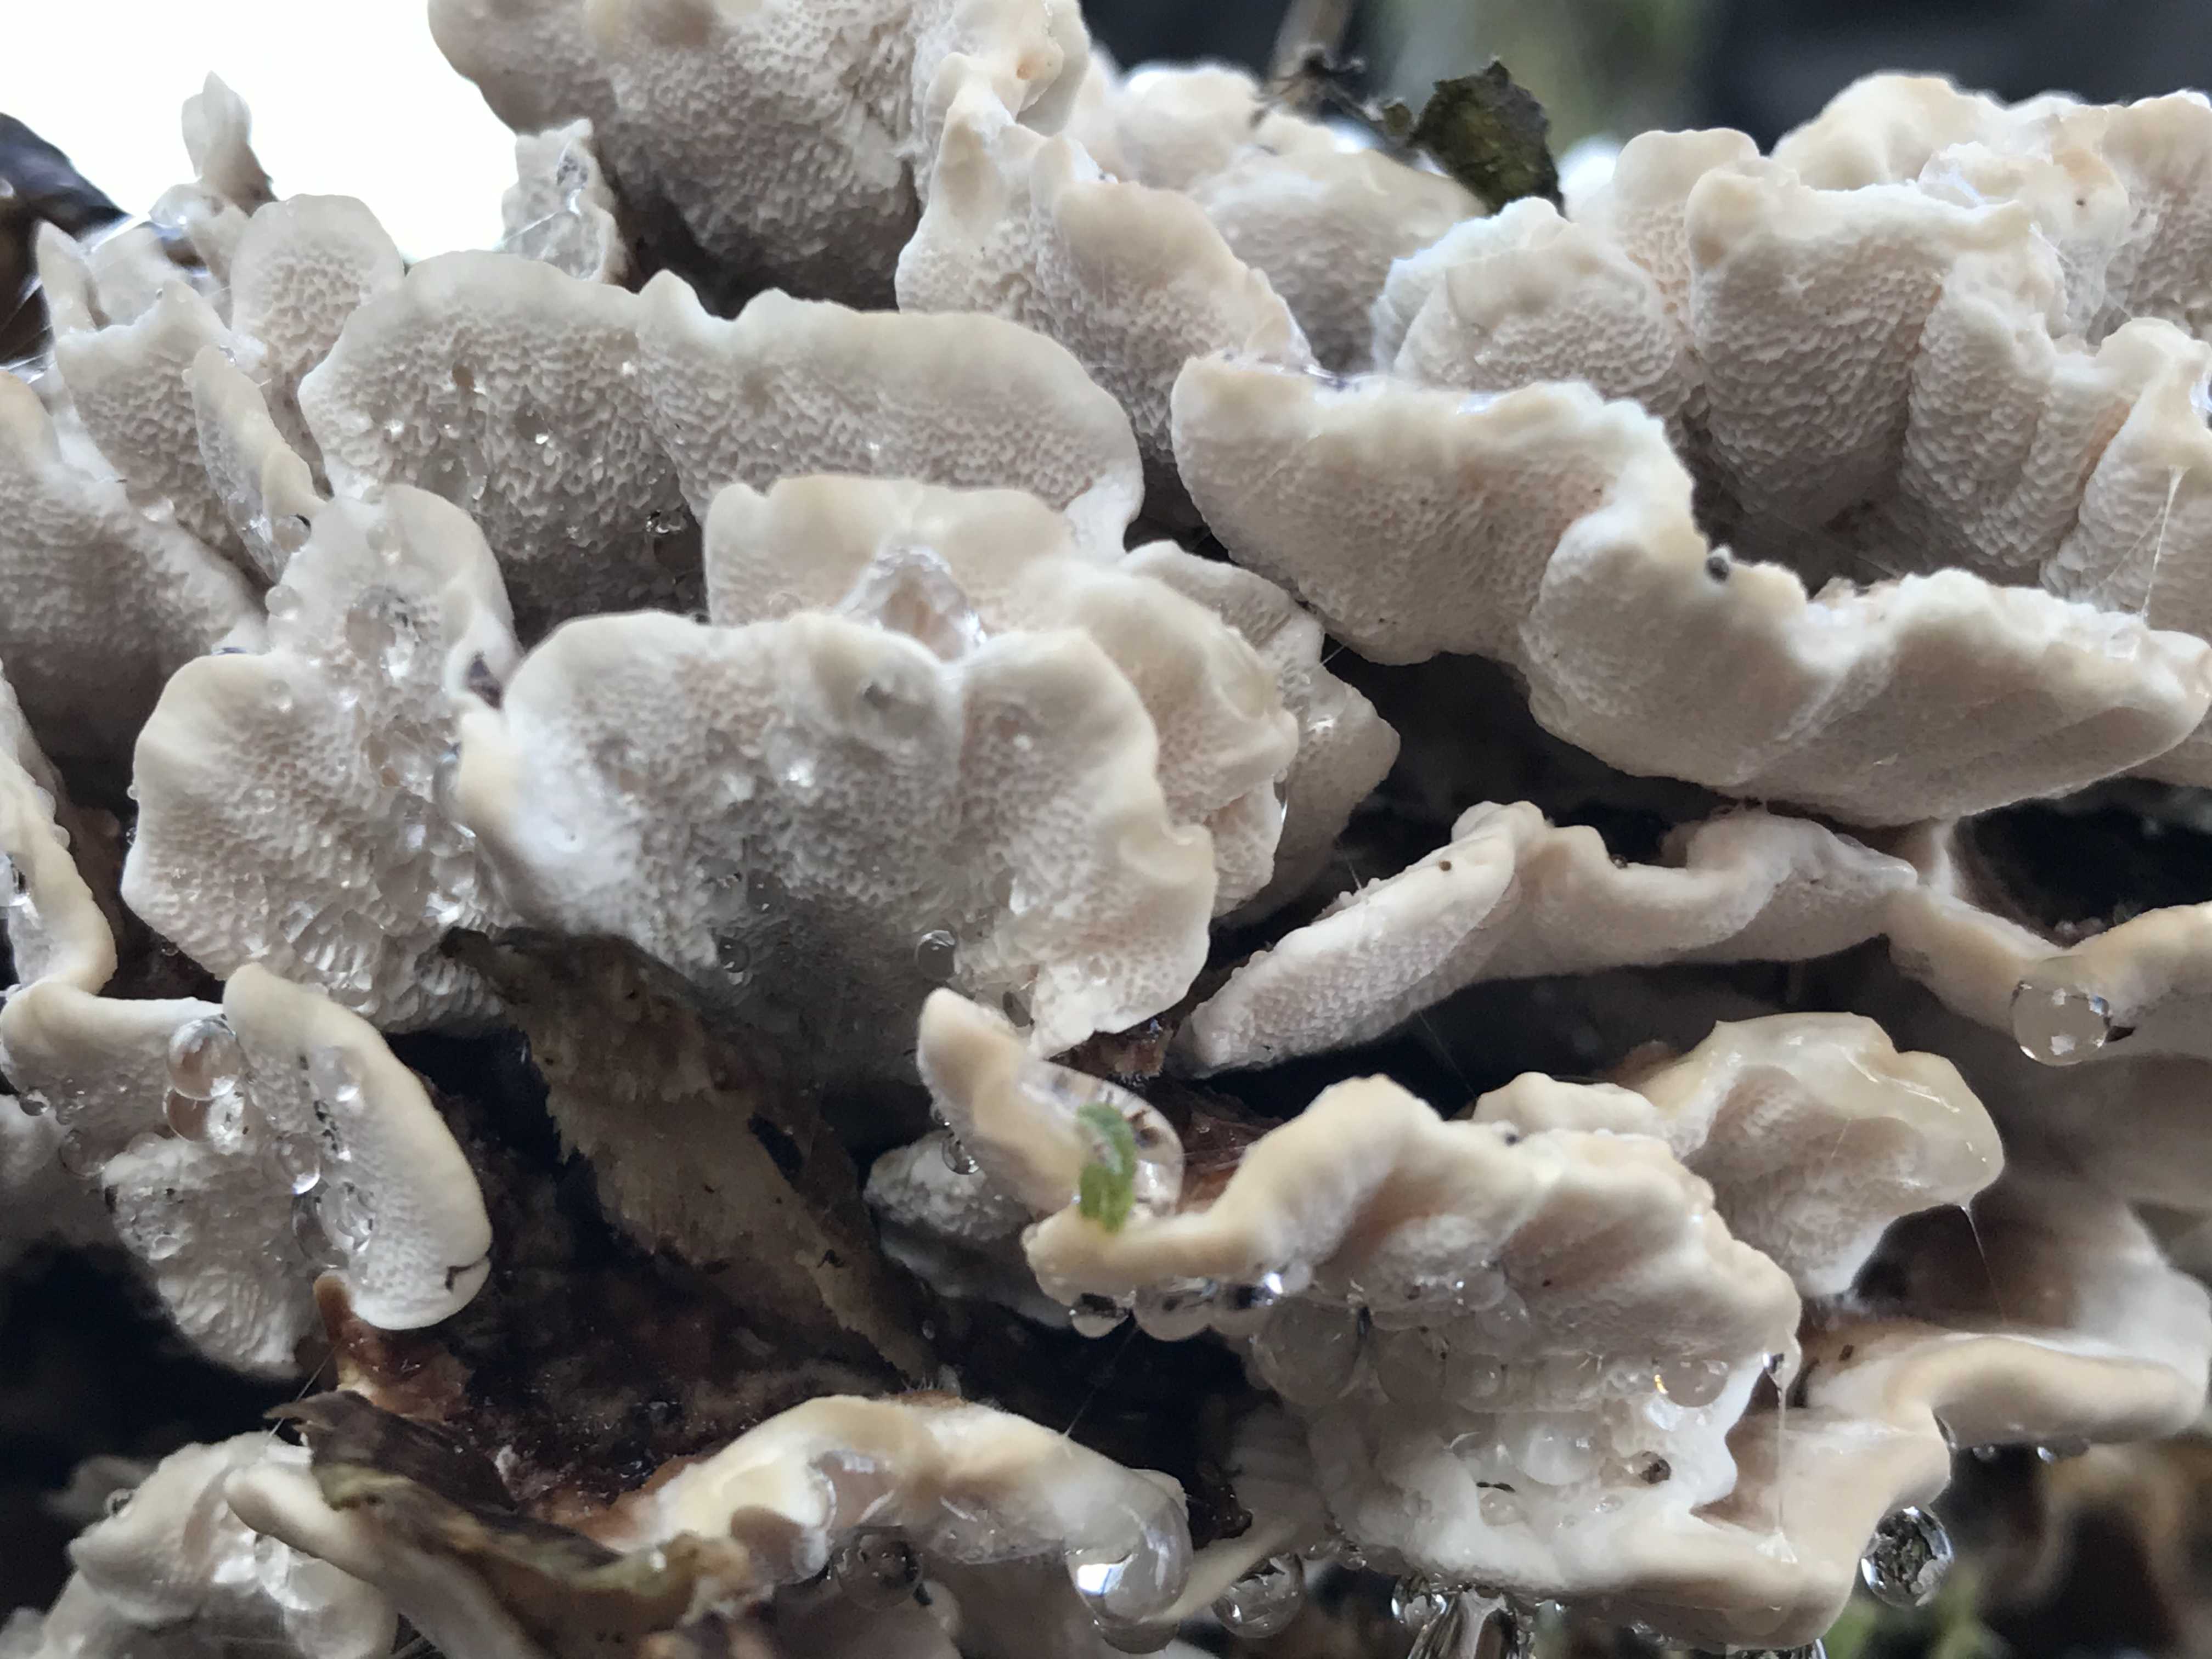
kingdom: Fungi
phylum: Basidiomycota
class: Agaricomycetes
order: Polyporales
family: Polyporaceae
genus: Trametes
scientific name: Trametes versicolor
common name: broget læderporesvamp
